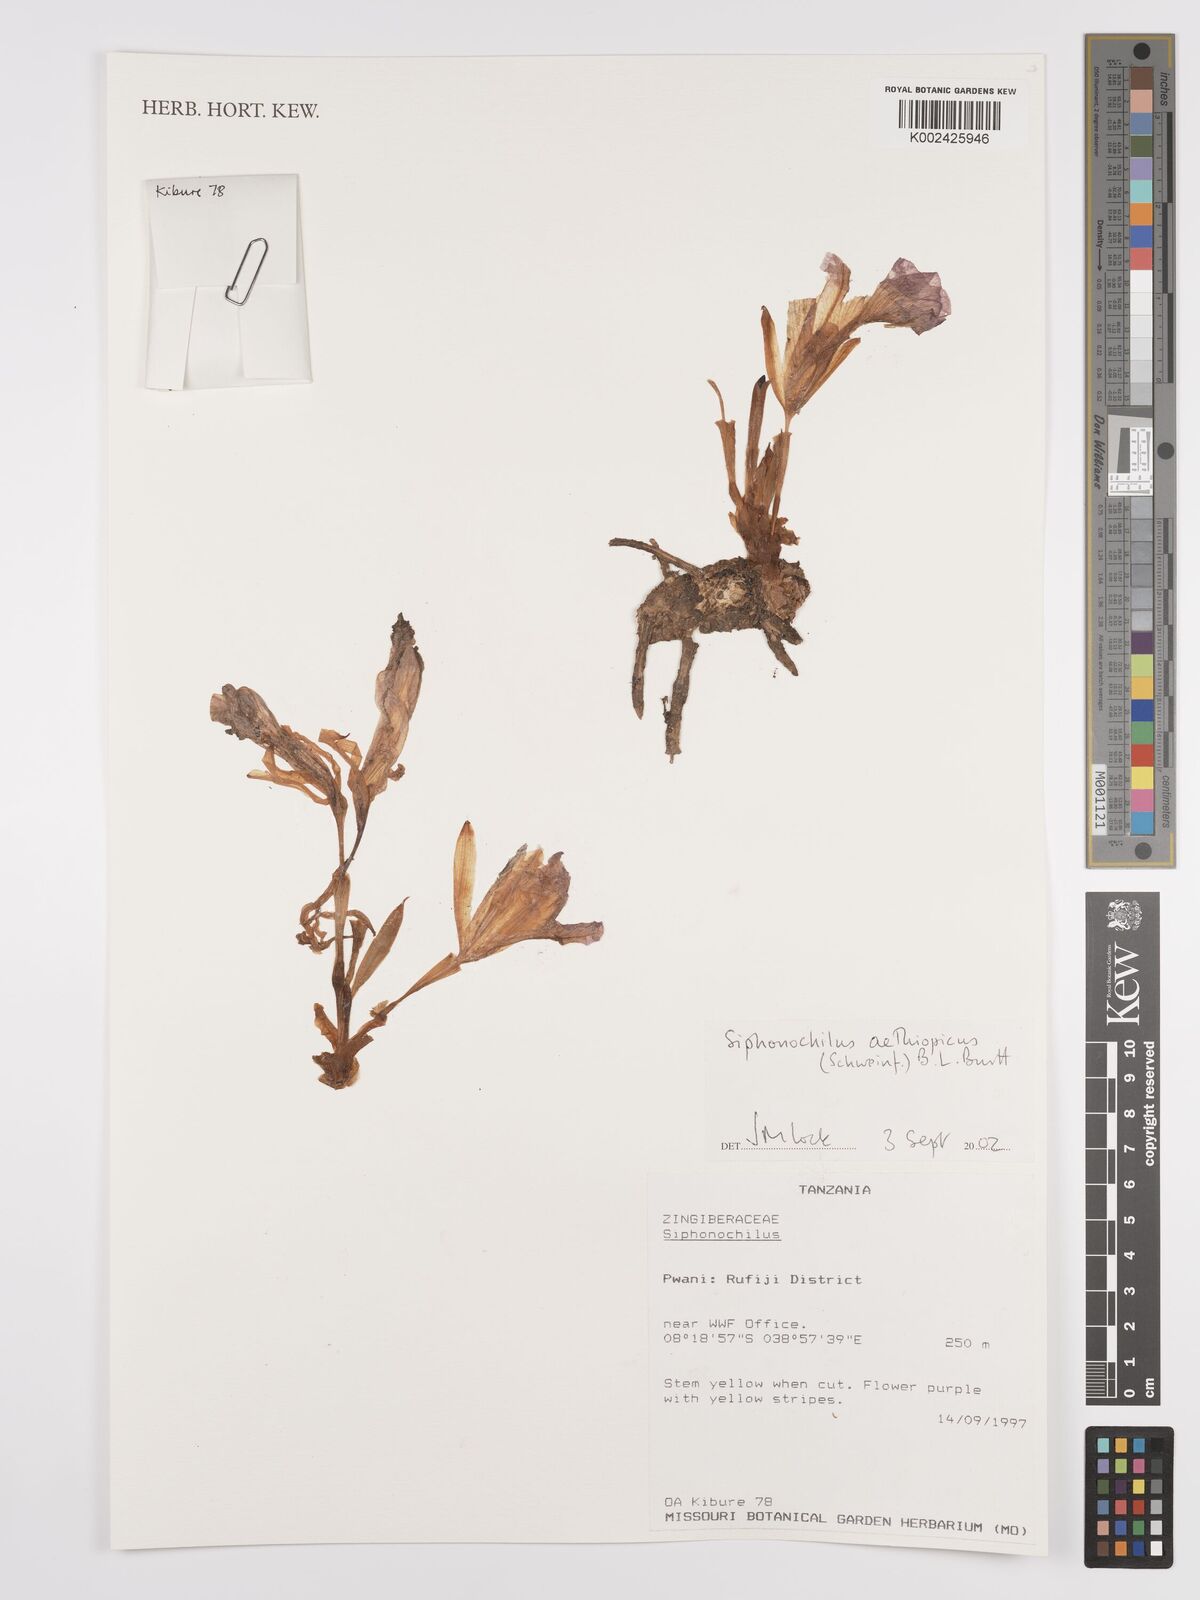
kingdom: Plantae
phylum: Tracheophyta
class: Liliopsida
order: Zingiberales
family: Zingiberaceae
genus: Siphonochilus
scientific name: Siphonochilus aethiopicus
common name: African-ginger
